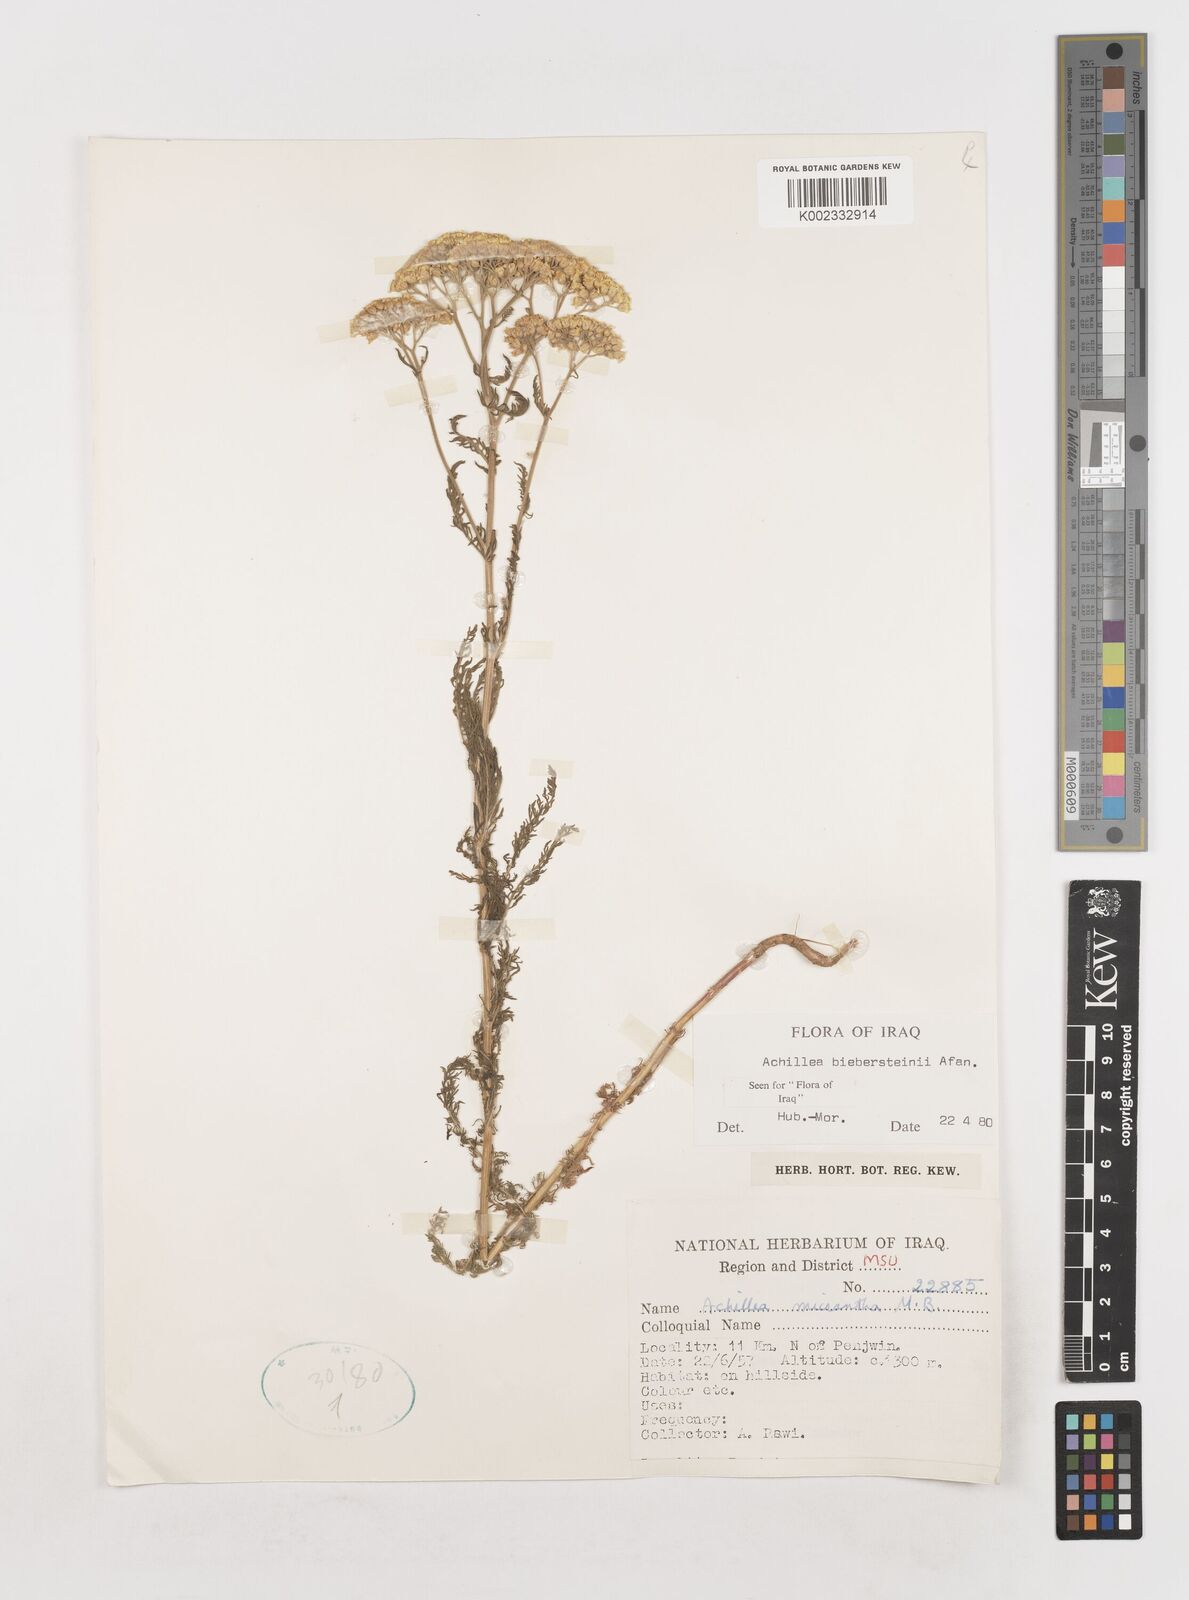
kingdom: Plantae
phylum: Tracheophyta
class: Magnoliopsida
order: Asterales
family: Asteraceae
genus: Achillea
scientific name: Achillea arabica
